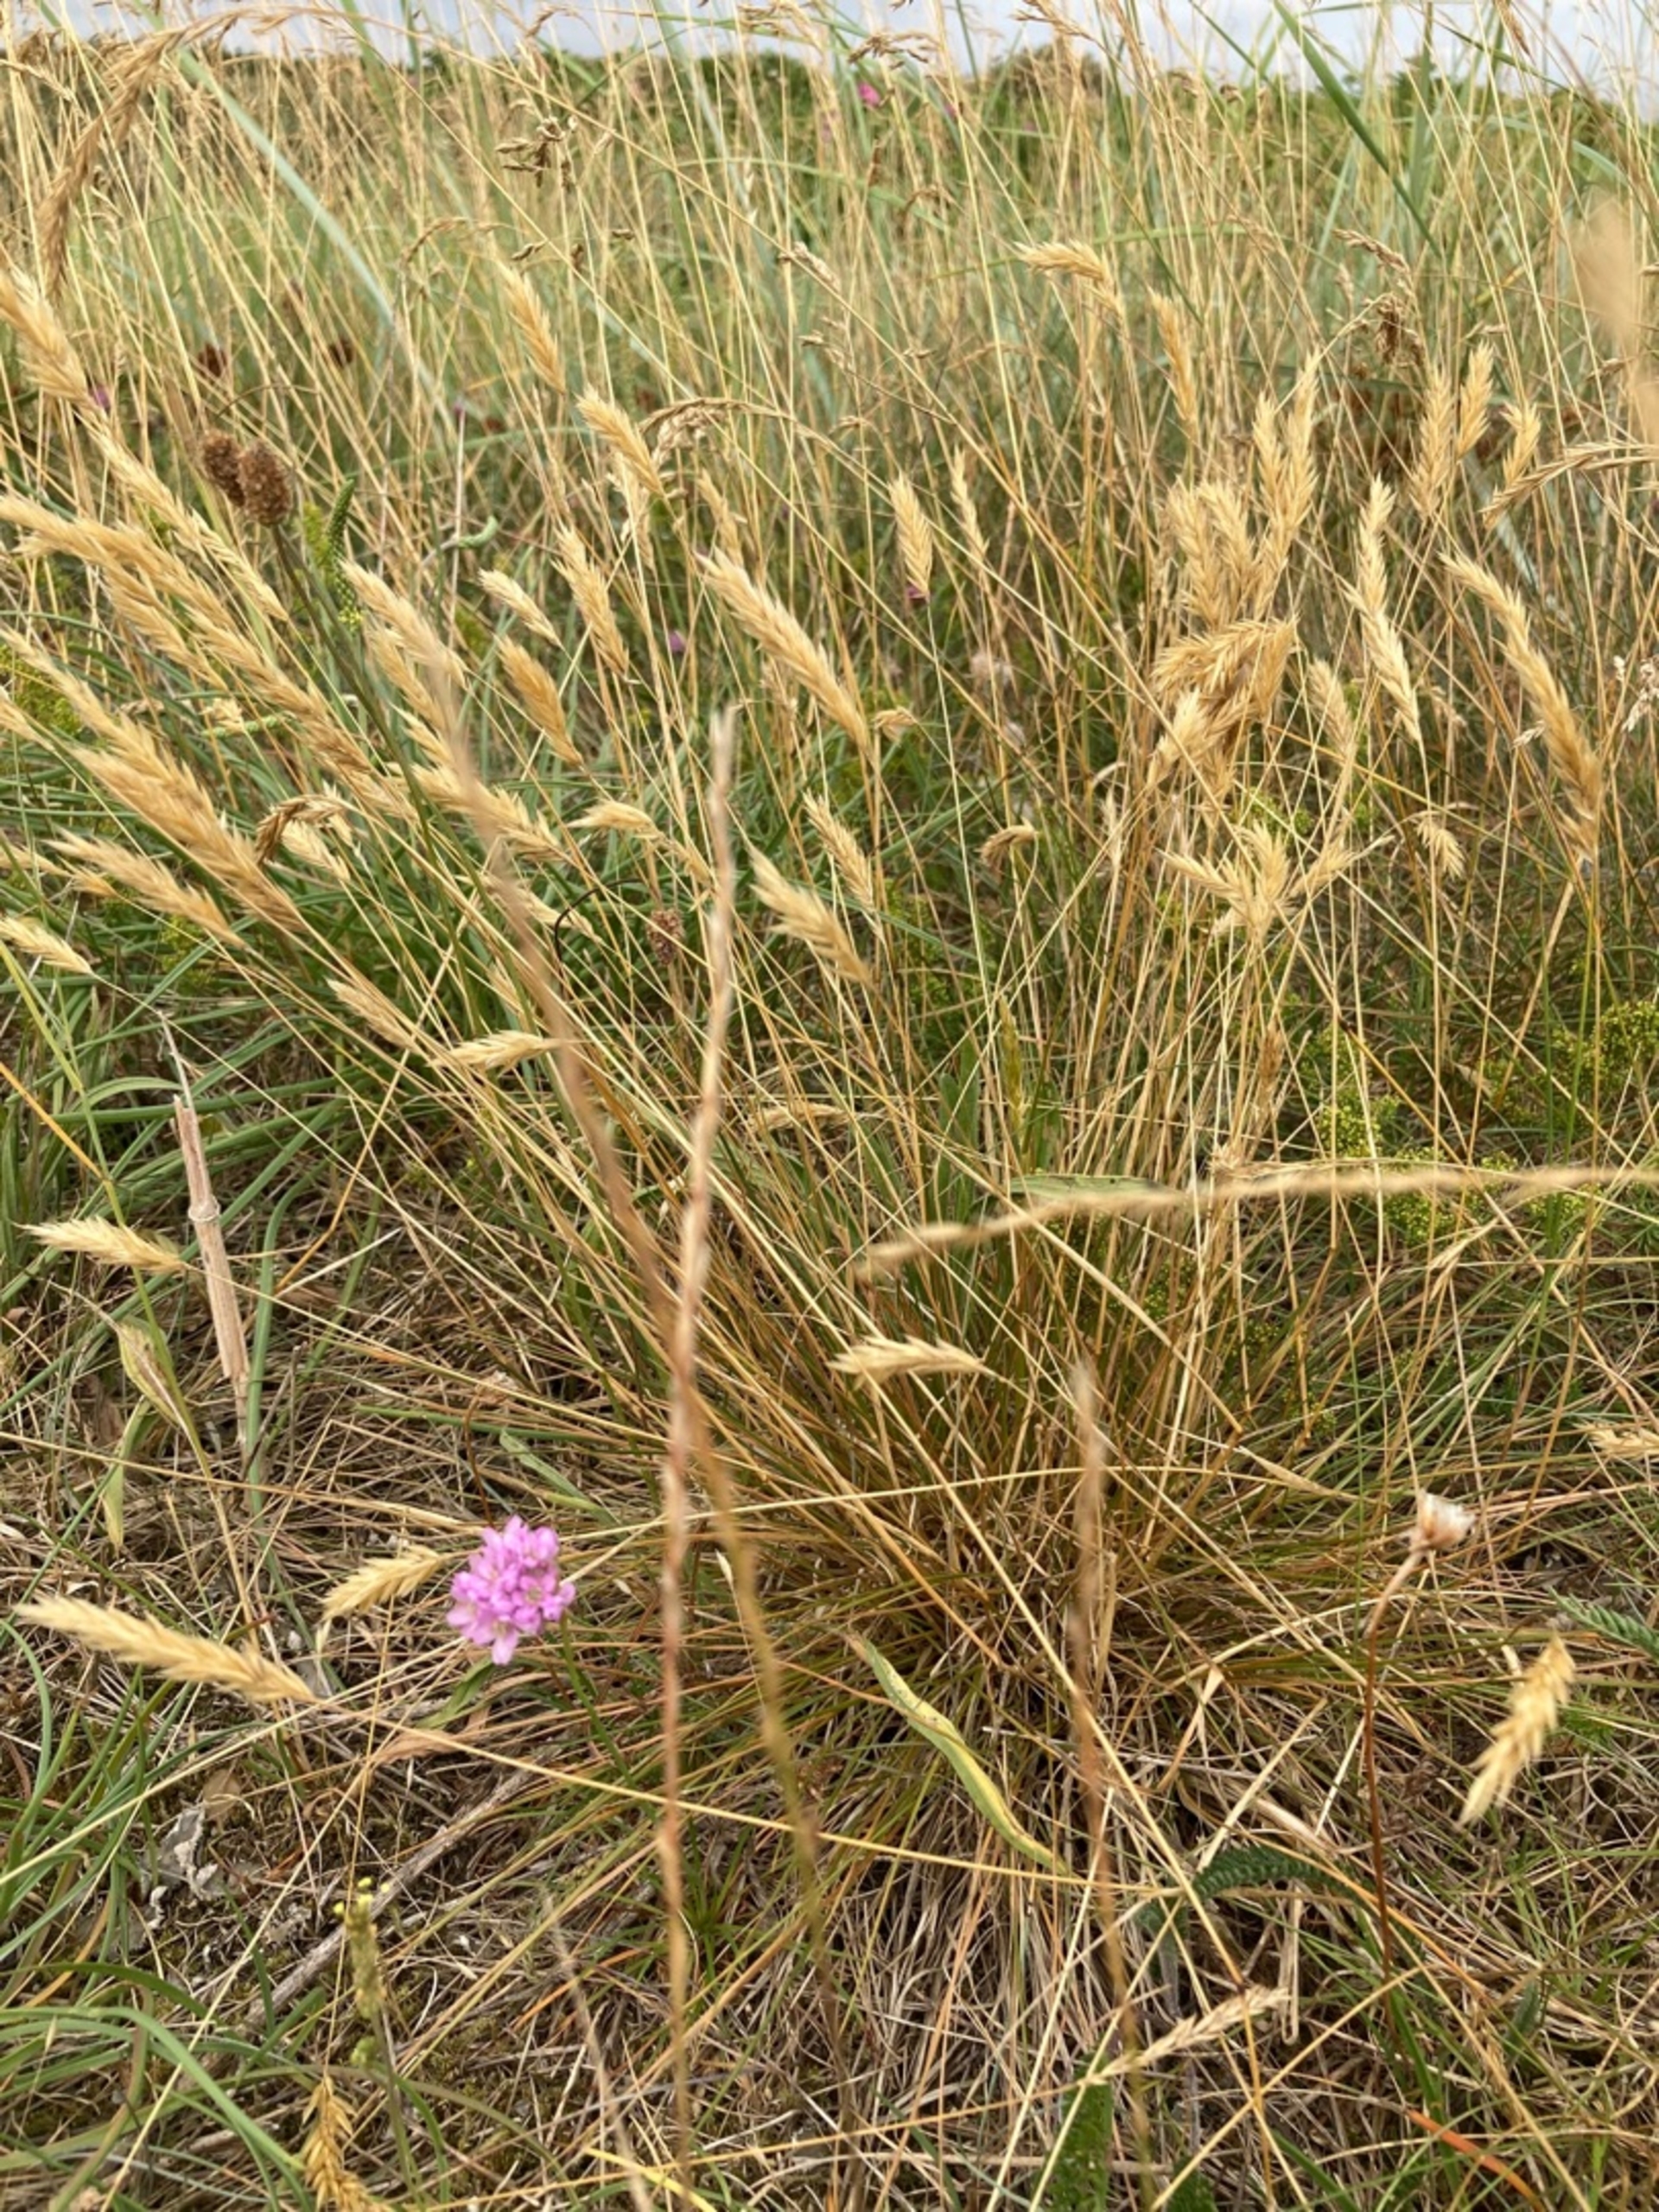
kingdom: Plantae
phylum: Tracheophyta
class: Liliopsida
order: Poales
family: Poaceae
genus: Anthoxanthum
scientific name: Anthoxanthum odoratum
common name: Vellugtende gulaks
